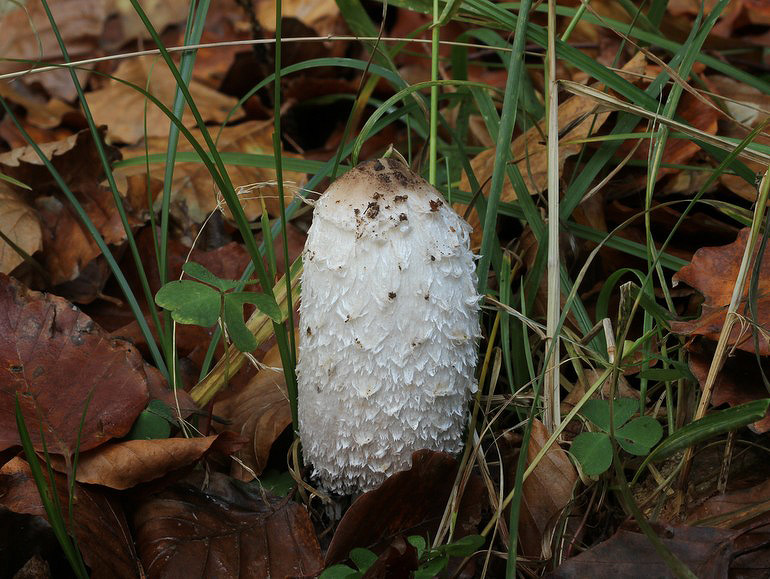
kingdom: Fungi
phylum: Basidiomycota
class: Agaricomycetes
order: Agaricales
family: Agaricaceae
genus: Coprinus
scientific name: Coprinus comatus
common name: stor parykhat
